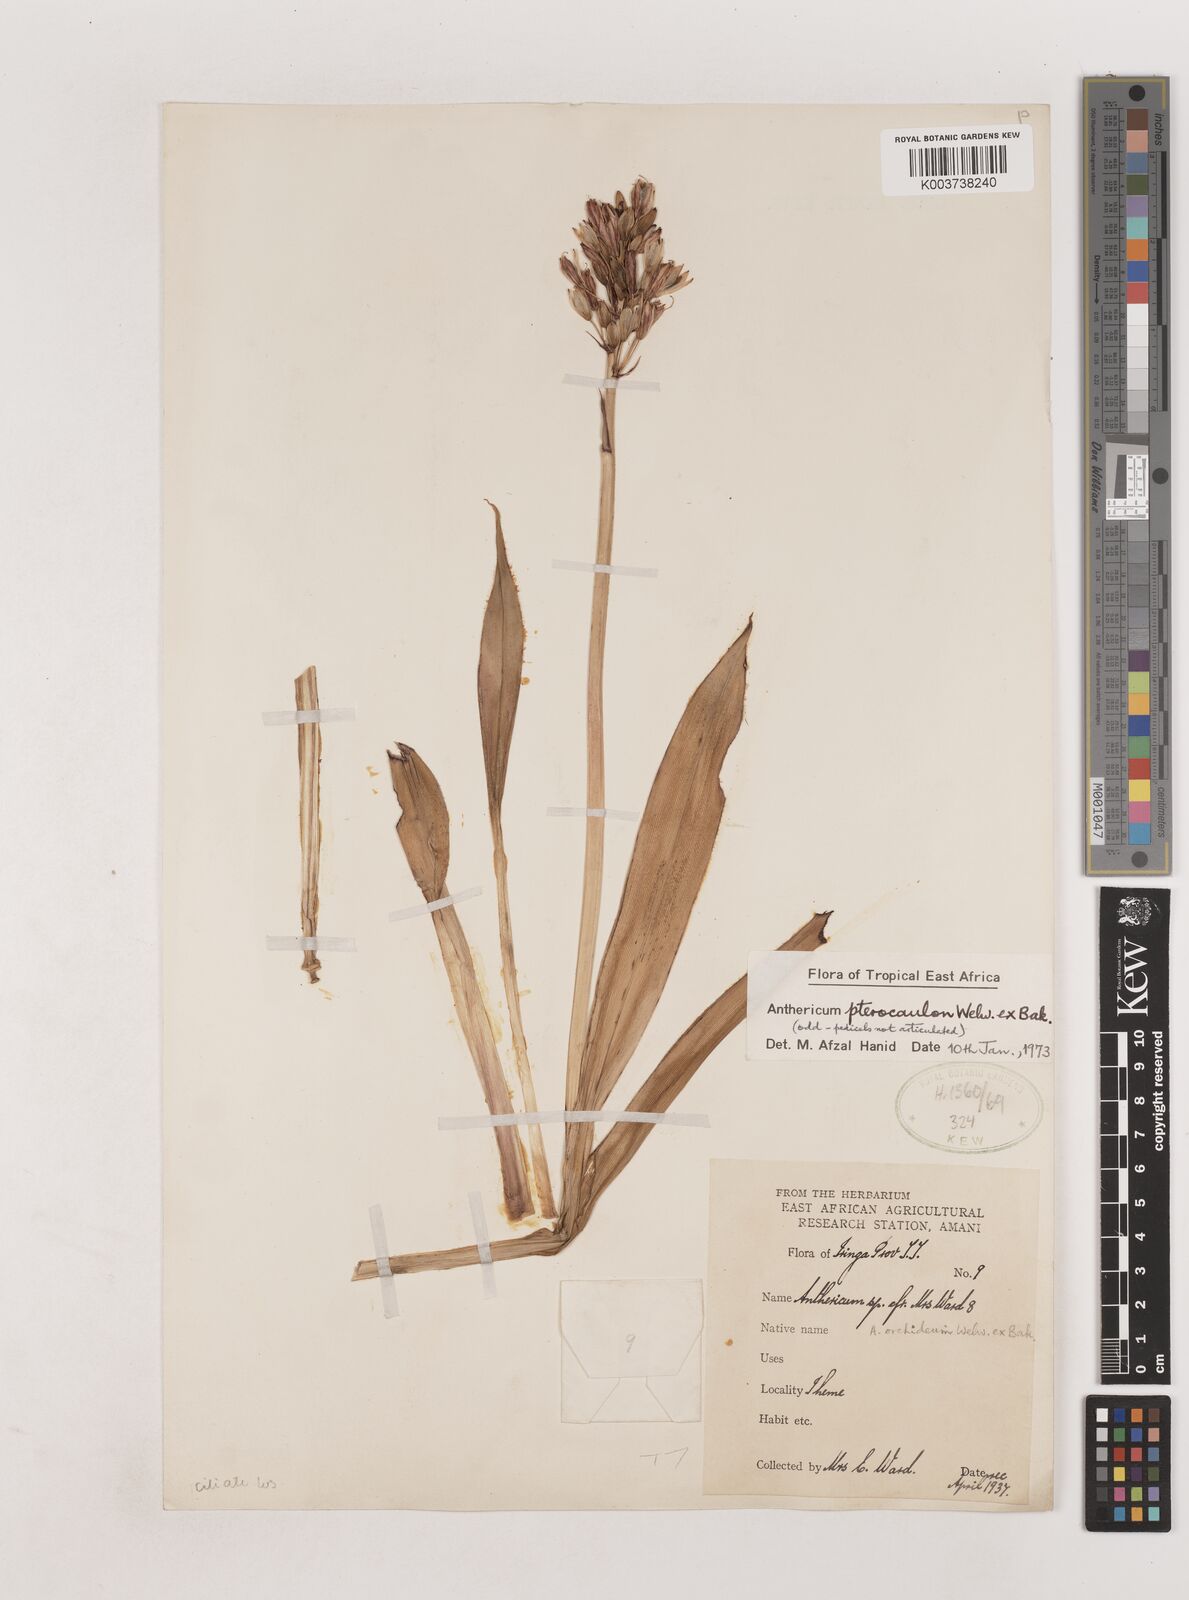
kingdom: Plantae
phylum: Tracheophyta
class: Liliopsida
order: Asparagales
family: Asparagaceae
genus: Chlorophytum
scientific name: Chlorophytum cameronii
